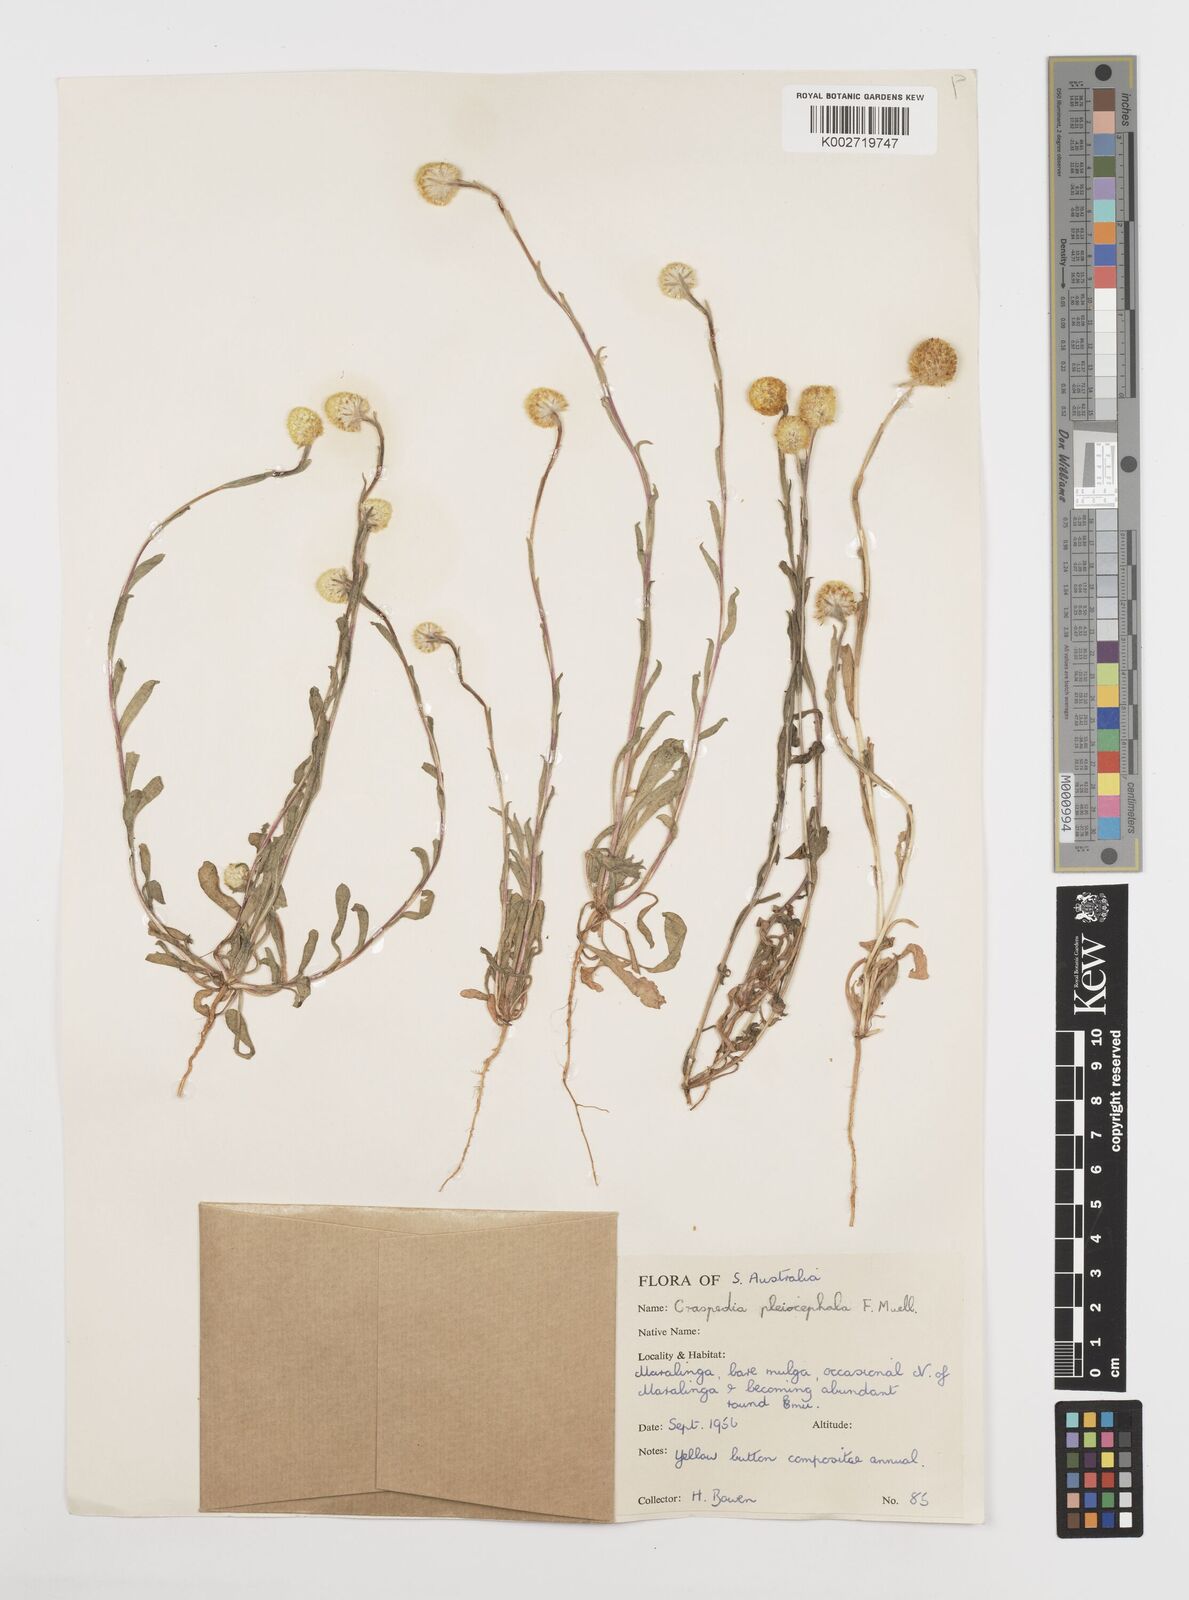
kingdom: Plantae
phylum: Tracheophyta
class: Magnoliopsida
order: Asterales
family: Asteraceae
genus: Pycnosorus
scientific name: Pycnosorus pleiocephalus
